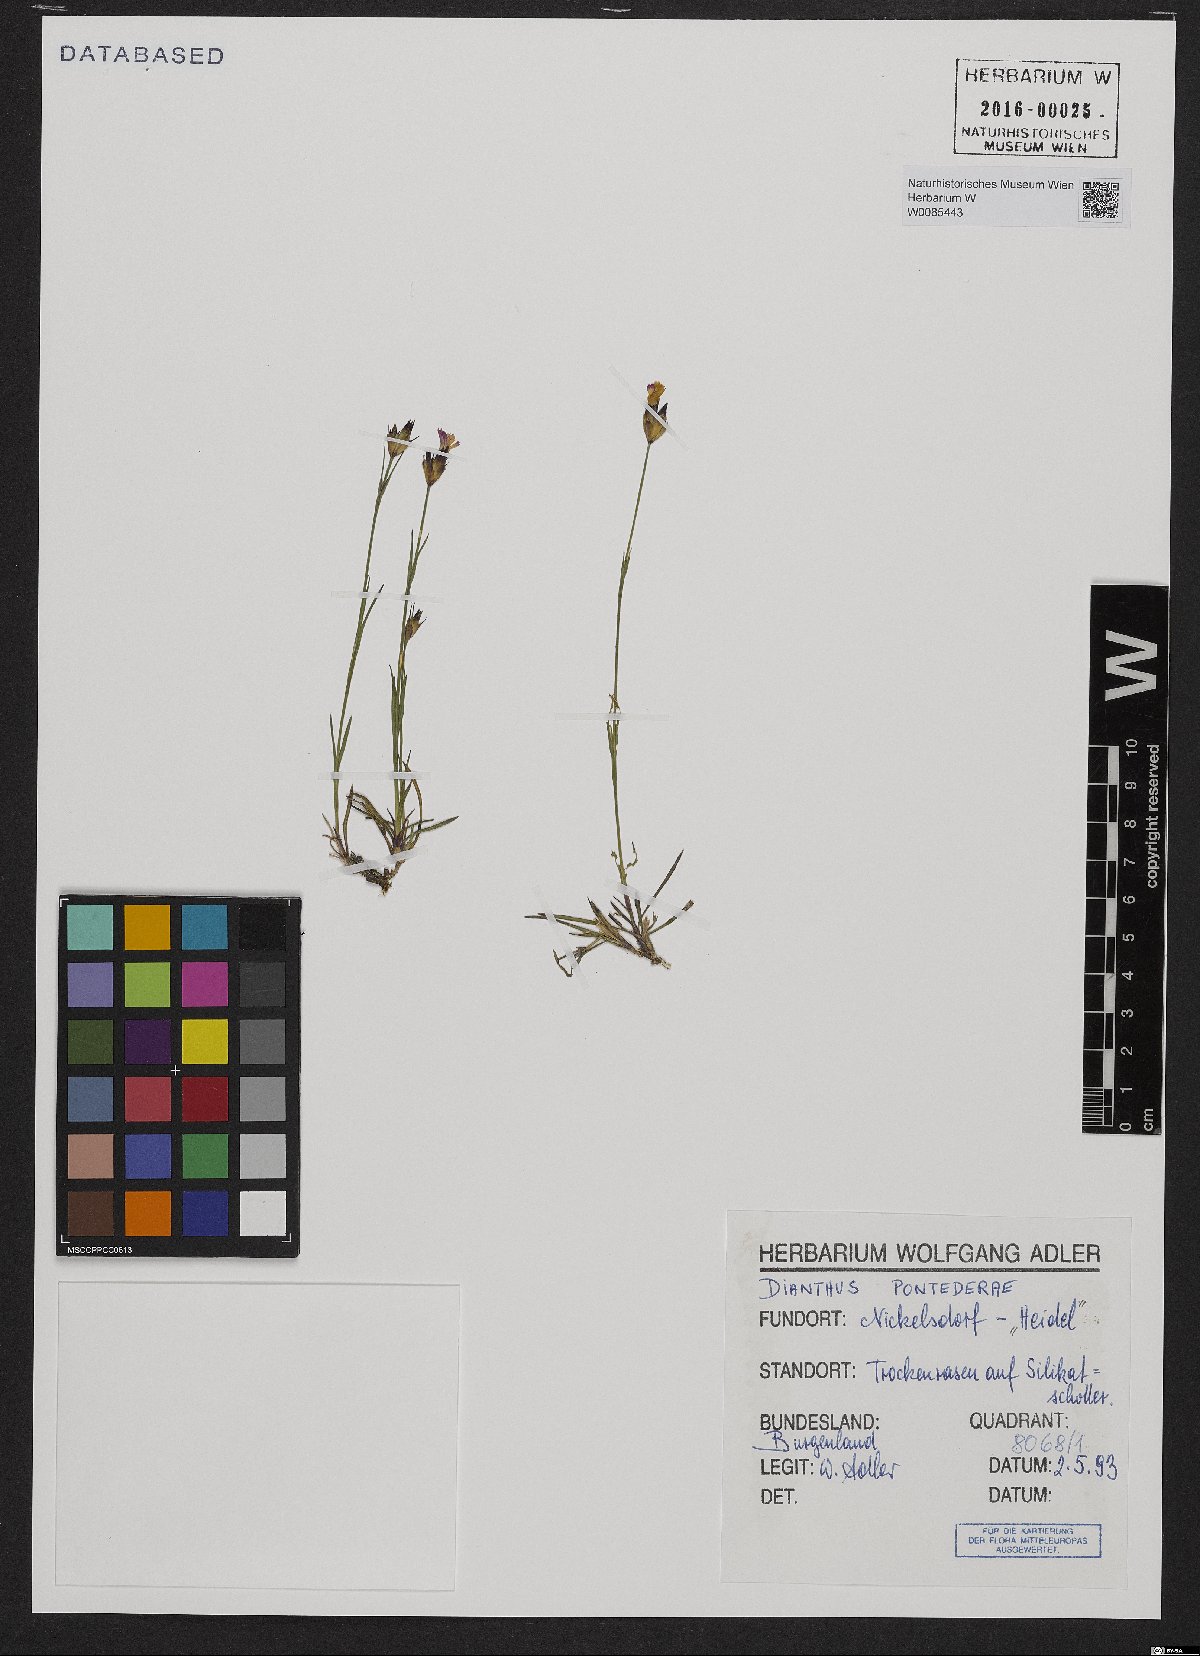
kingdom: Plantae
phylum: Tracheophyta
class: Magnoliopsida
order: Caryophyllales
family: Caryophyllaceae
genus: Dianthus
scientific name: Dianthus pontederae
